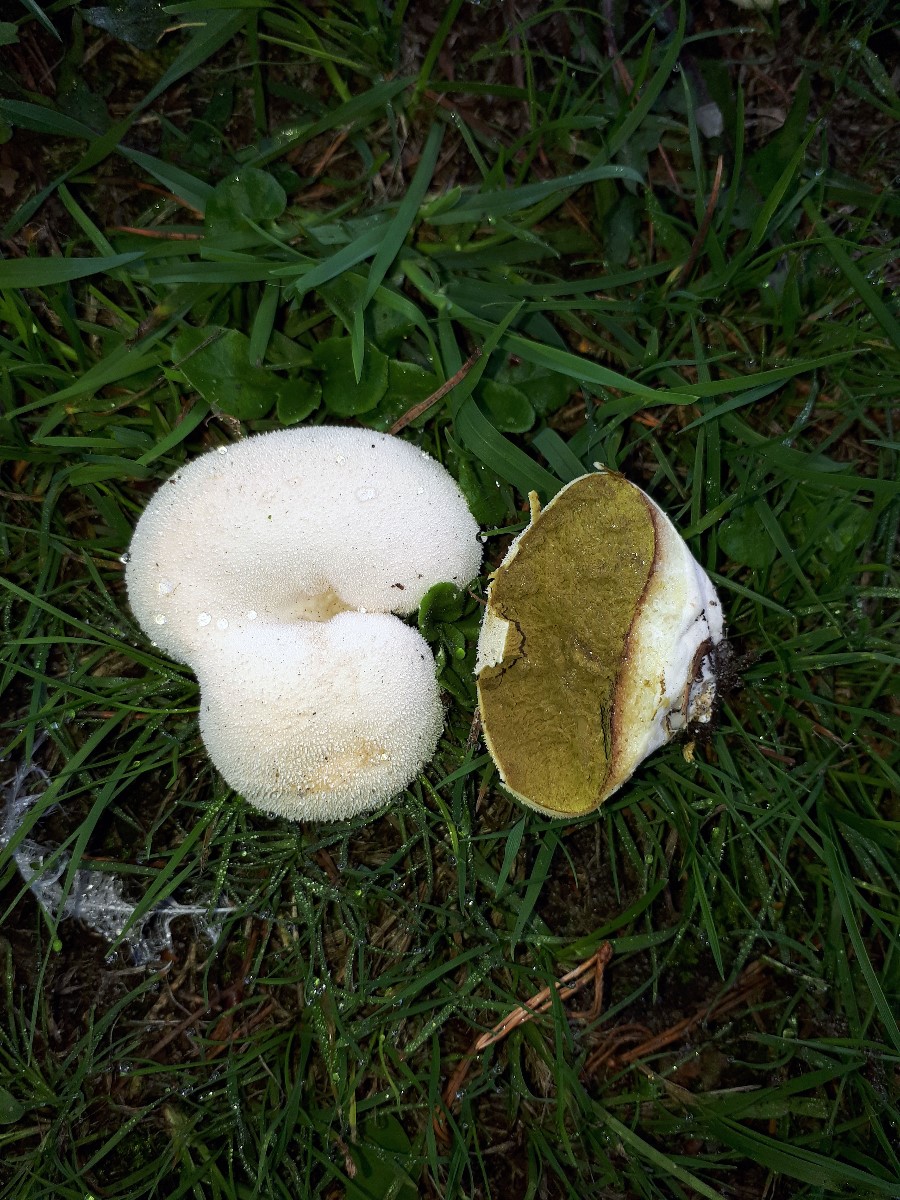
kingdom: Fungi
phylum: Basidiomycota
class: Agaricomycetes
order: Agaricales
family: Lycoperdaceae
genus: Lycoperdon
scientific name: Lycoperdon pratense
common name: flad støvbold
